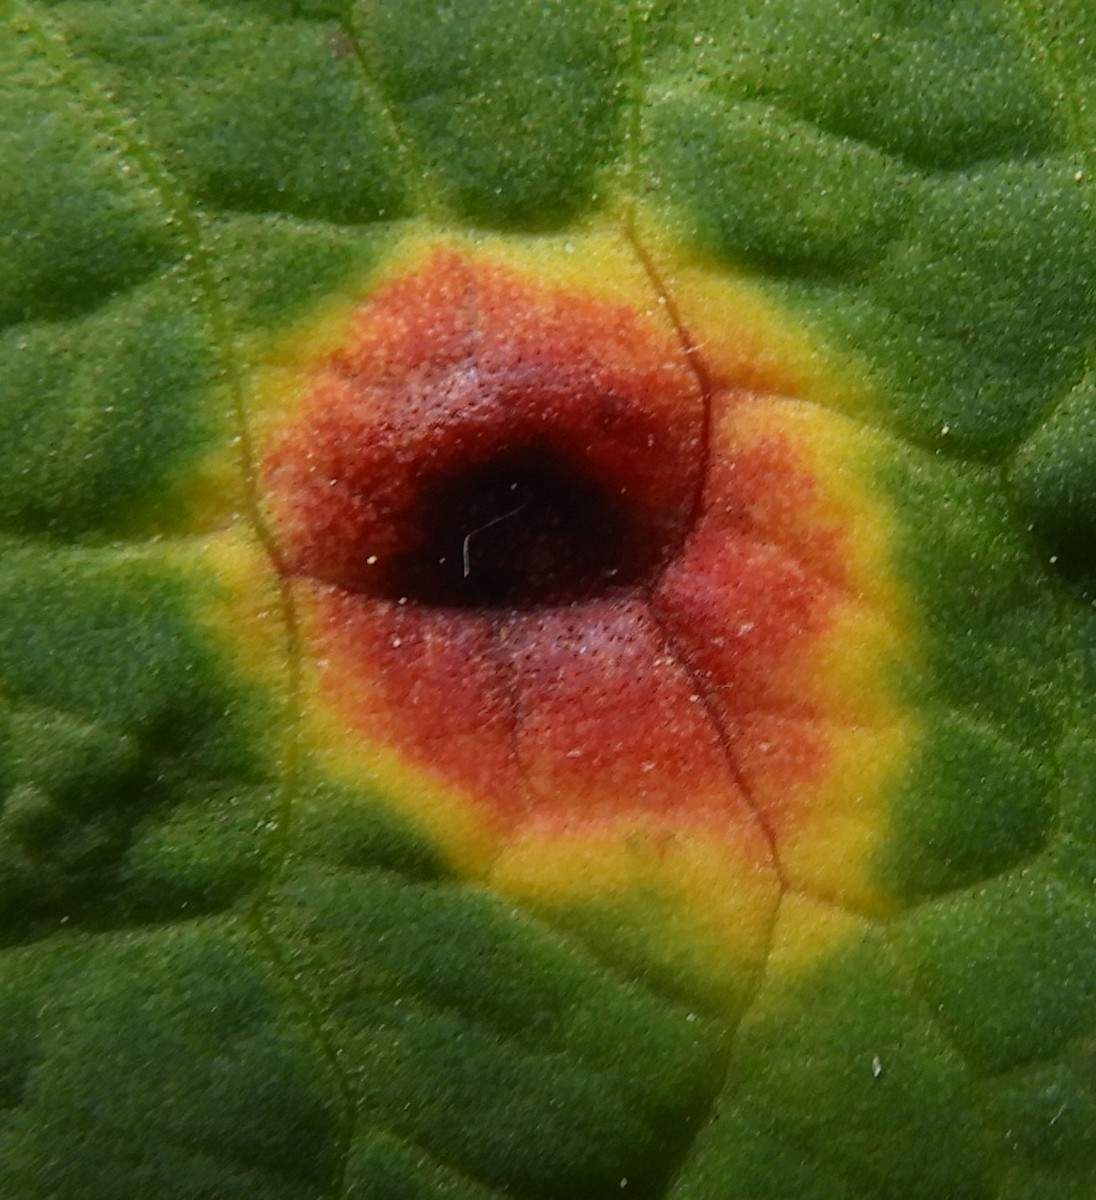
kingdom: Fungi
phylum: Basidiomycota
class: Pucciniomycetes
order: Pucciniales
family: Pucciniaceae
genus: Puccinia
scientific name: Puccinia phragmitis
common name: tagrør-tvecellerust
